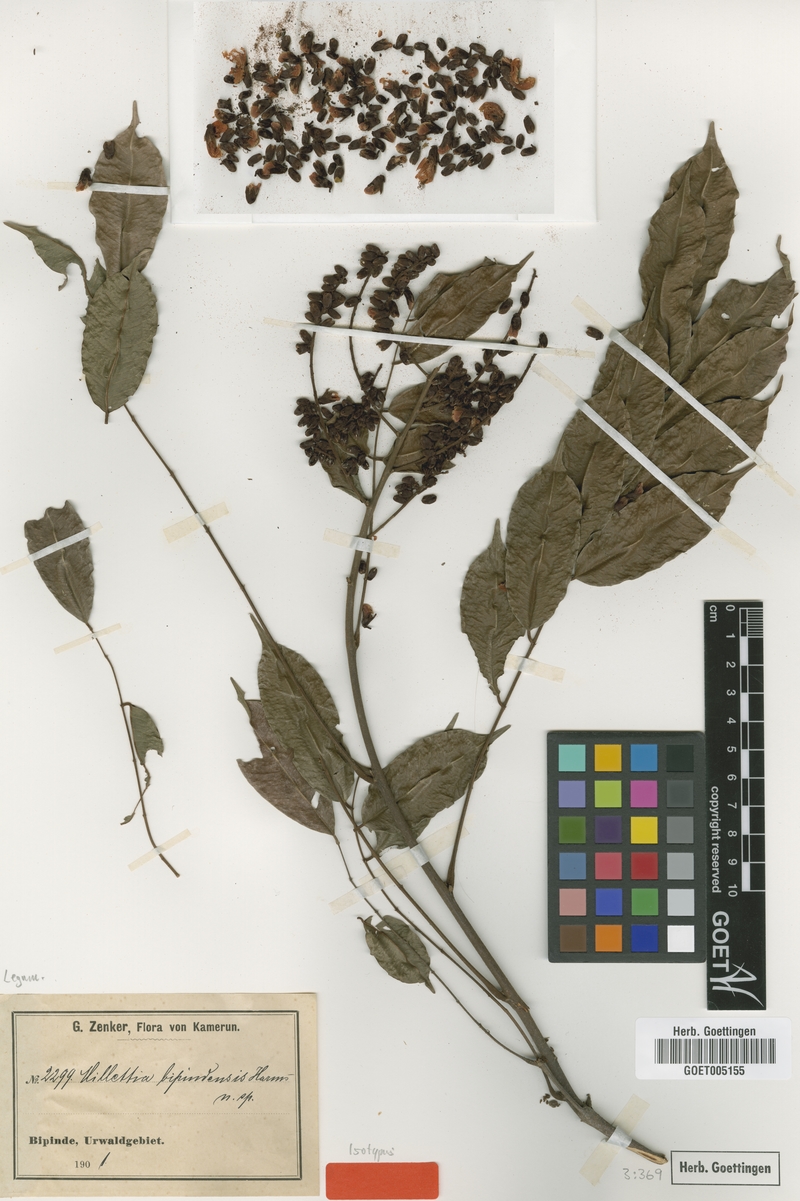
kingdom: Plantae
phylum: Tracheophyta
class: Magnoliopsida
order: Fabales
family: Fabaceae
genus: Millettia
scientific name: Millettia bipindensis
